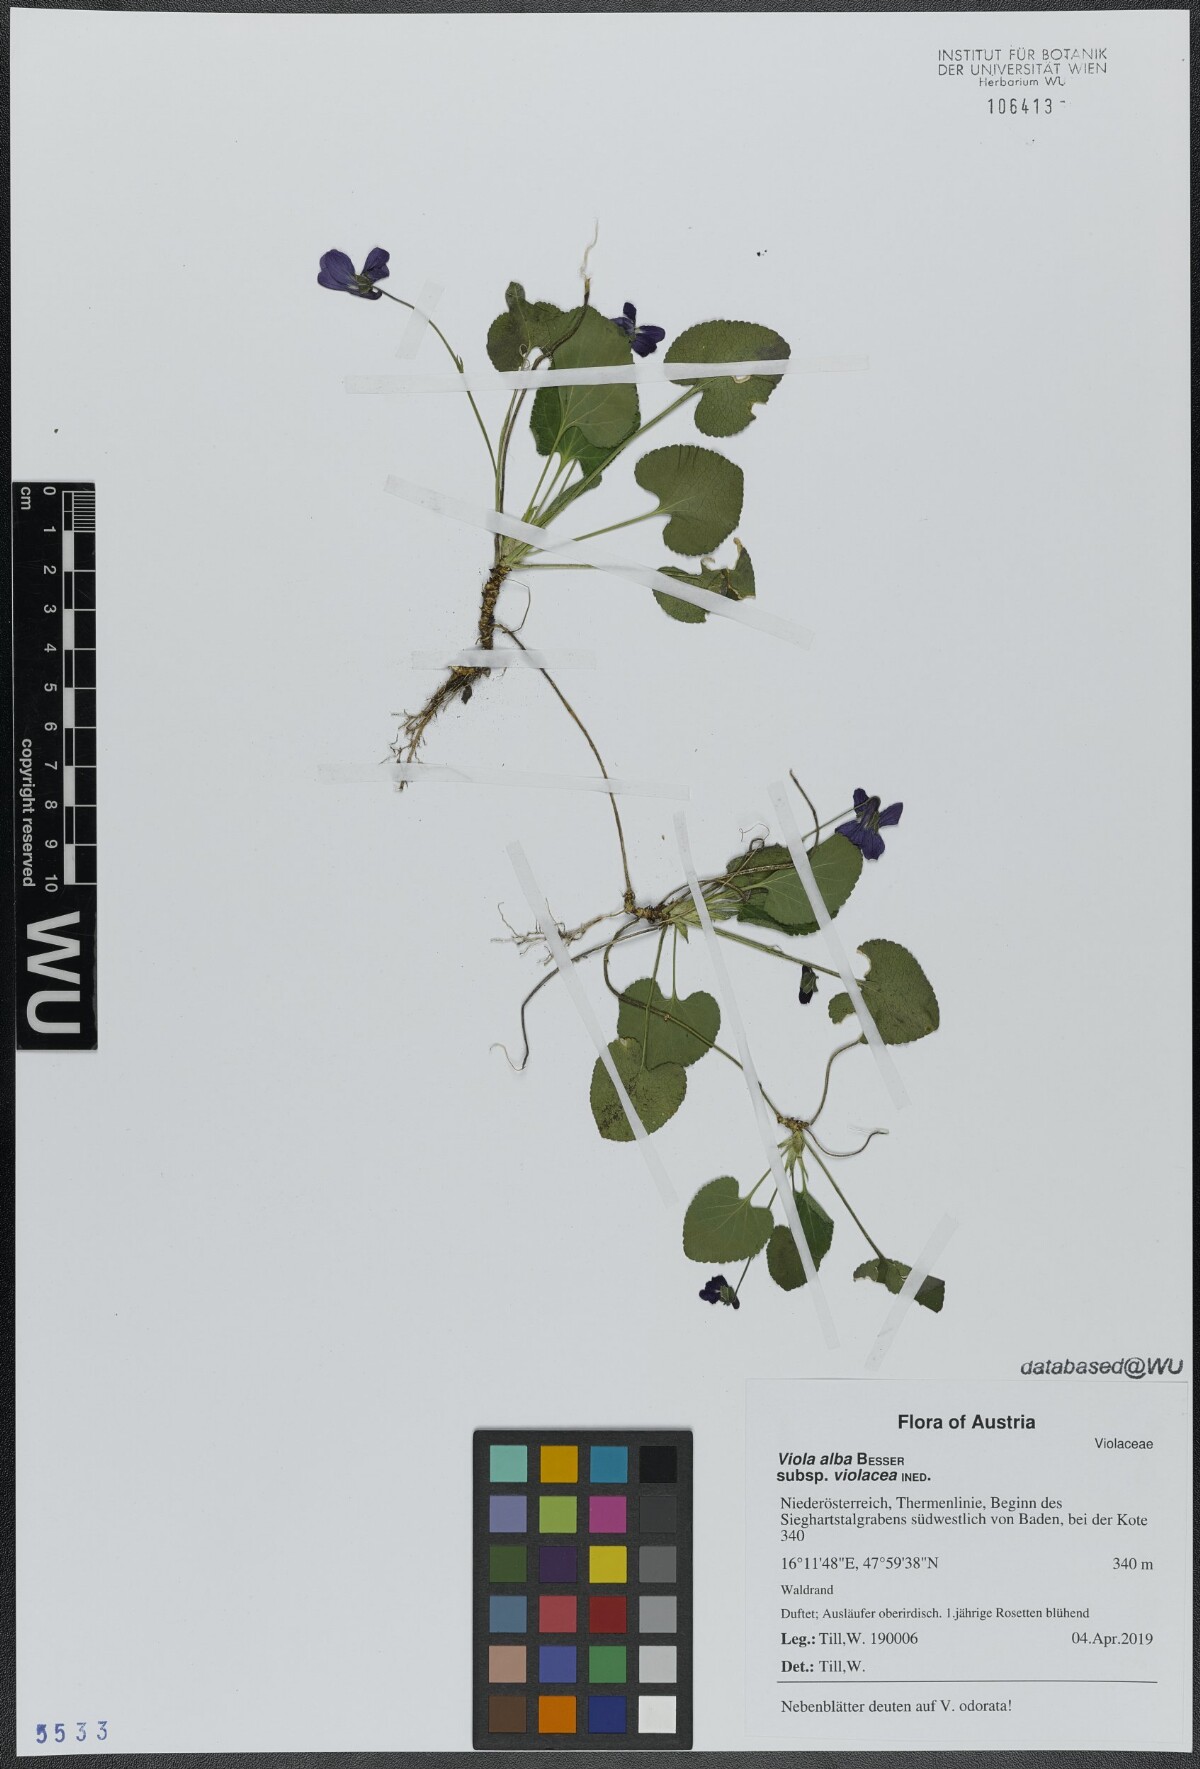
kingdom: Plantae
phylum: Tracheophyta
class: Magnoliopsida
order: Malpighiales
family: Violaceae
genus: Viola
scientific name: Viola alba
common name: White violet
